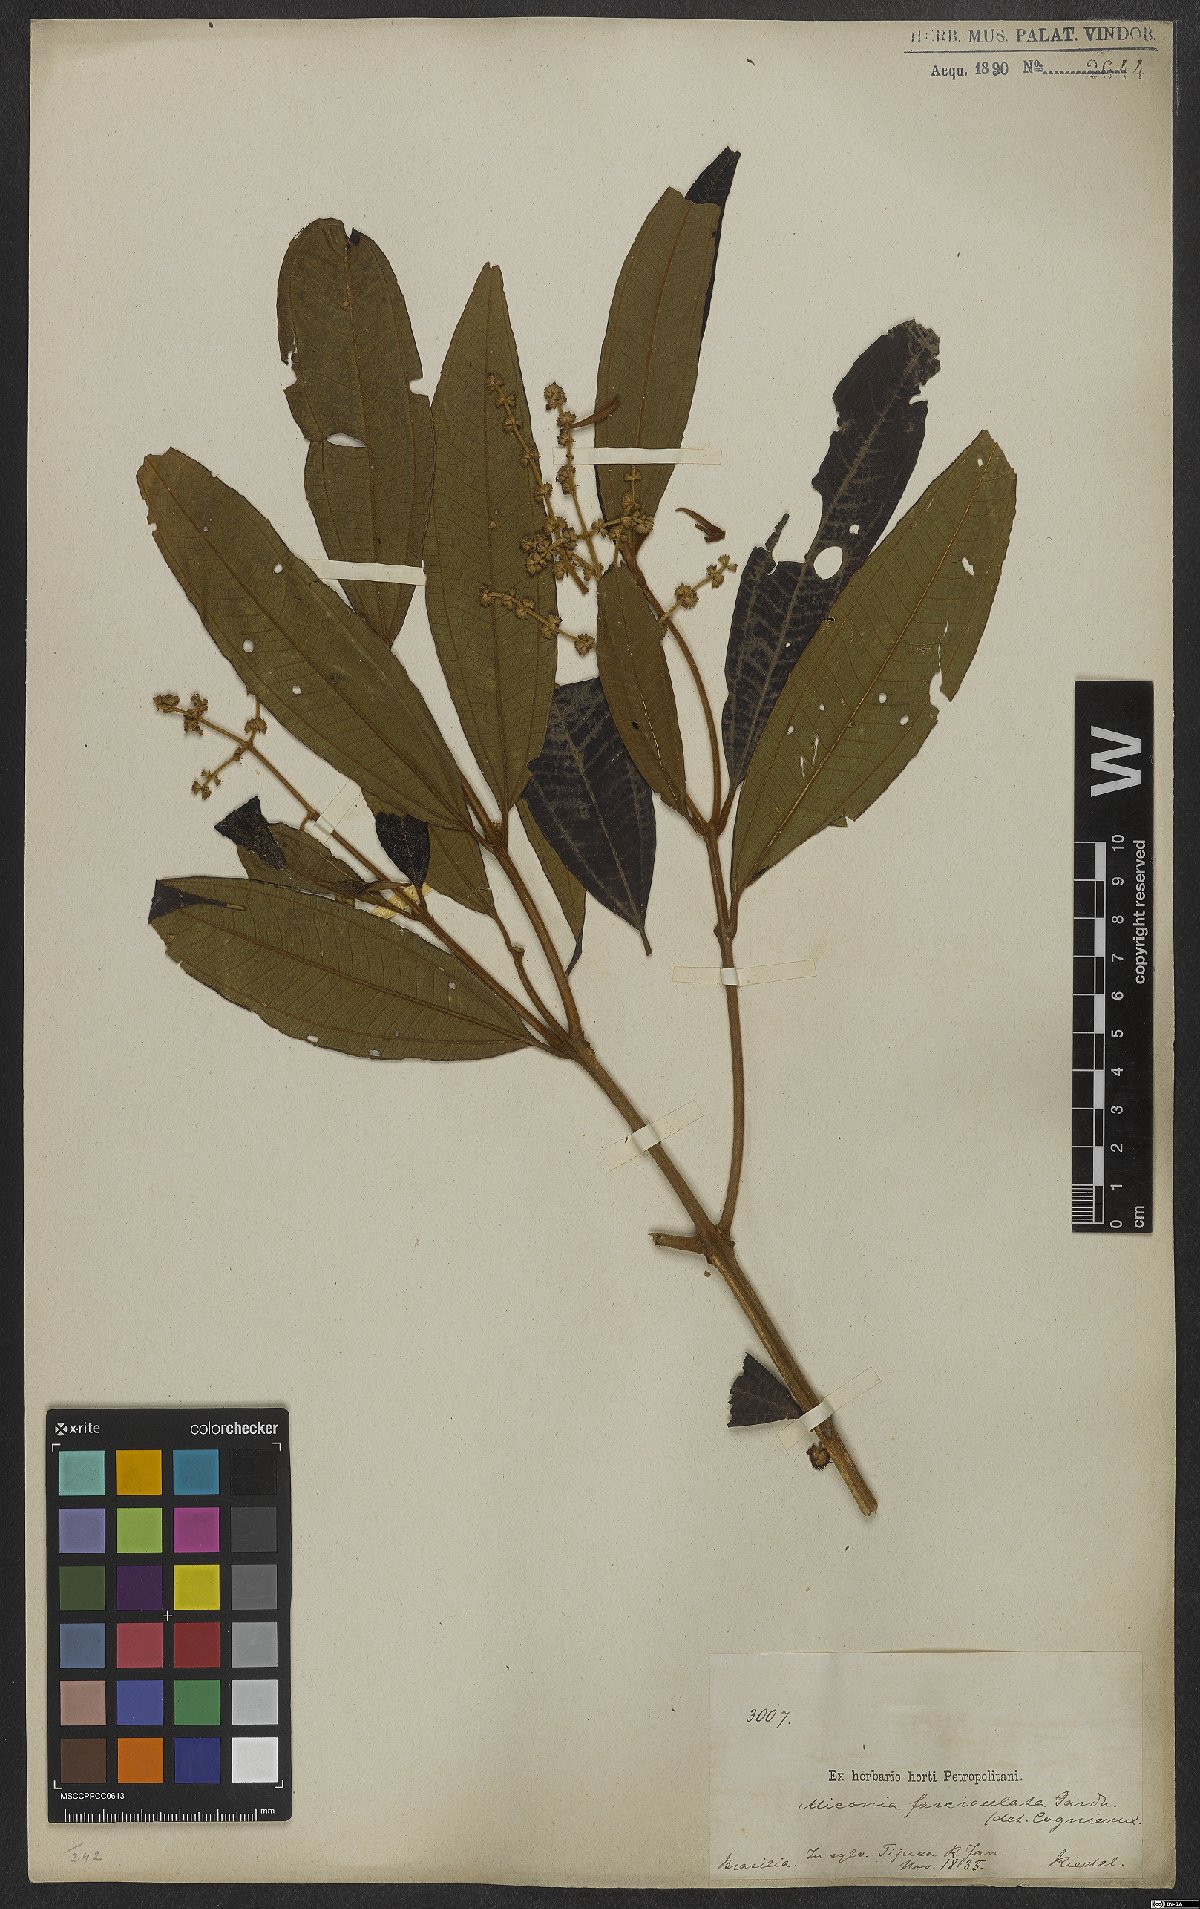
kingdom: Plantae
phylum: Tracheophyta
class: Magnoliopsida
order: Myrtales
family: Melastomataceae
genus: Miconia
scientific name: Miconia fasciculata
